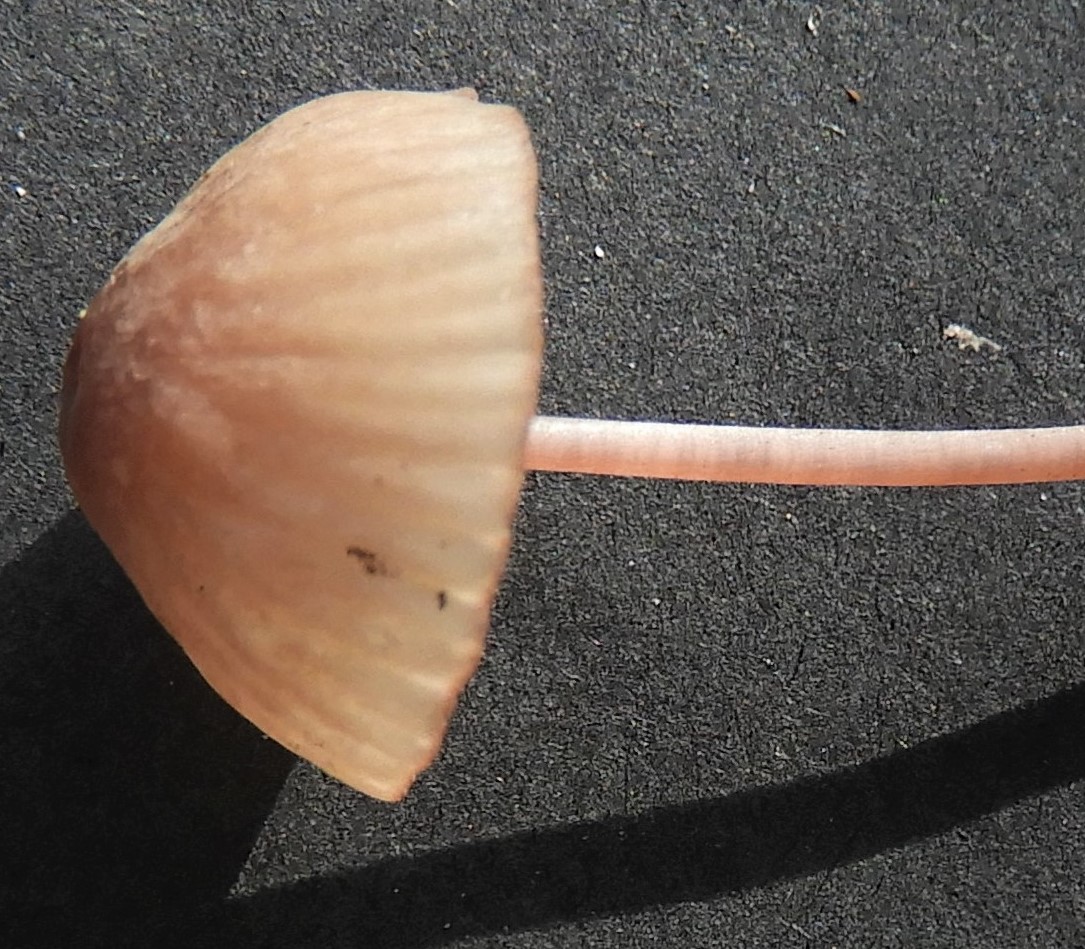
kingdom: Fungi
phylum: Basidiomycota
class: Agaricomycetes
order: Agaricales
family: Mycenaceae
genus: Mycena
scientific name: Mycena sanguinolenta
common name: rødmælket huesvamp
